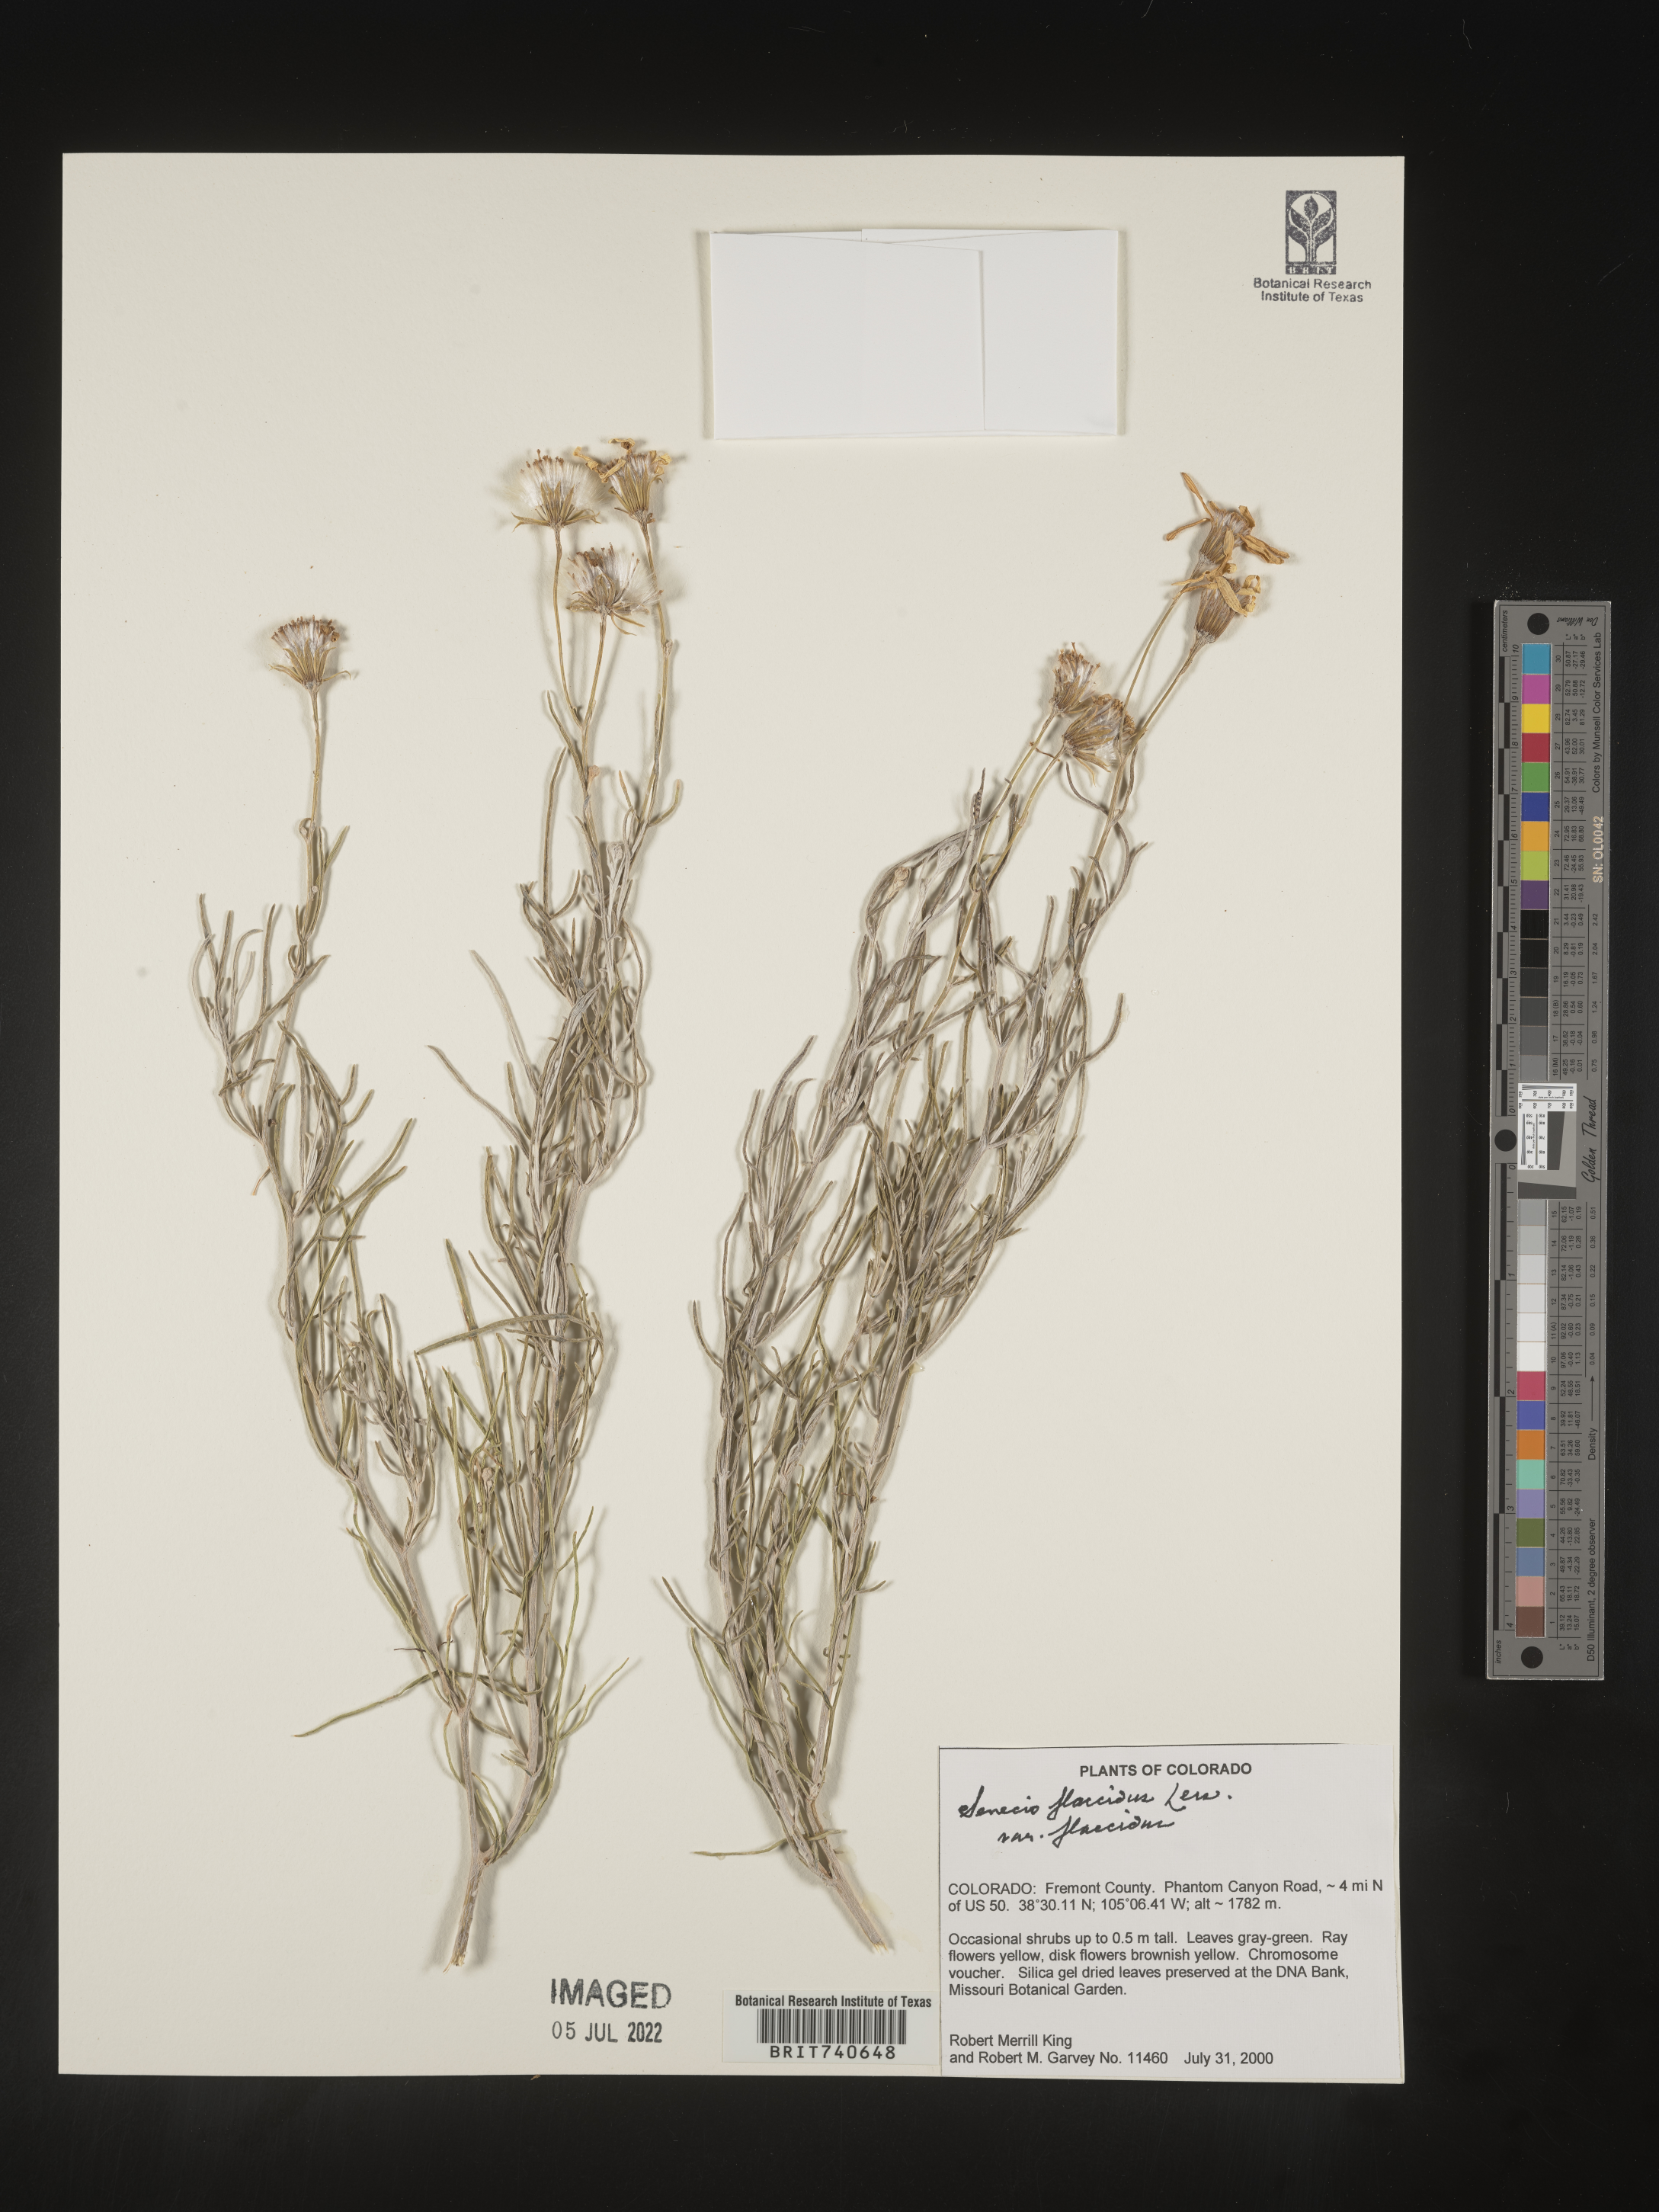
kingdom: Plantae
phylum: Tracheophyta
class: Magnoliopsida
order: Asterales
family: Asteraceae
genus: Senecio
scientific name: Senecio flaccidus
